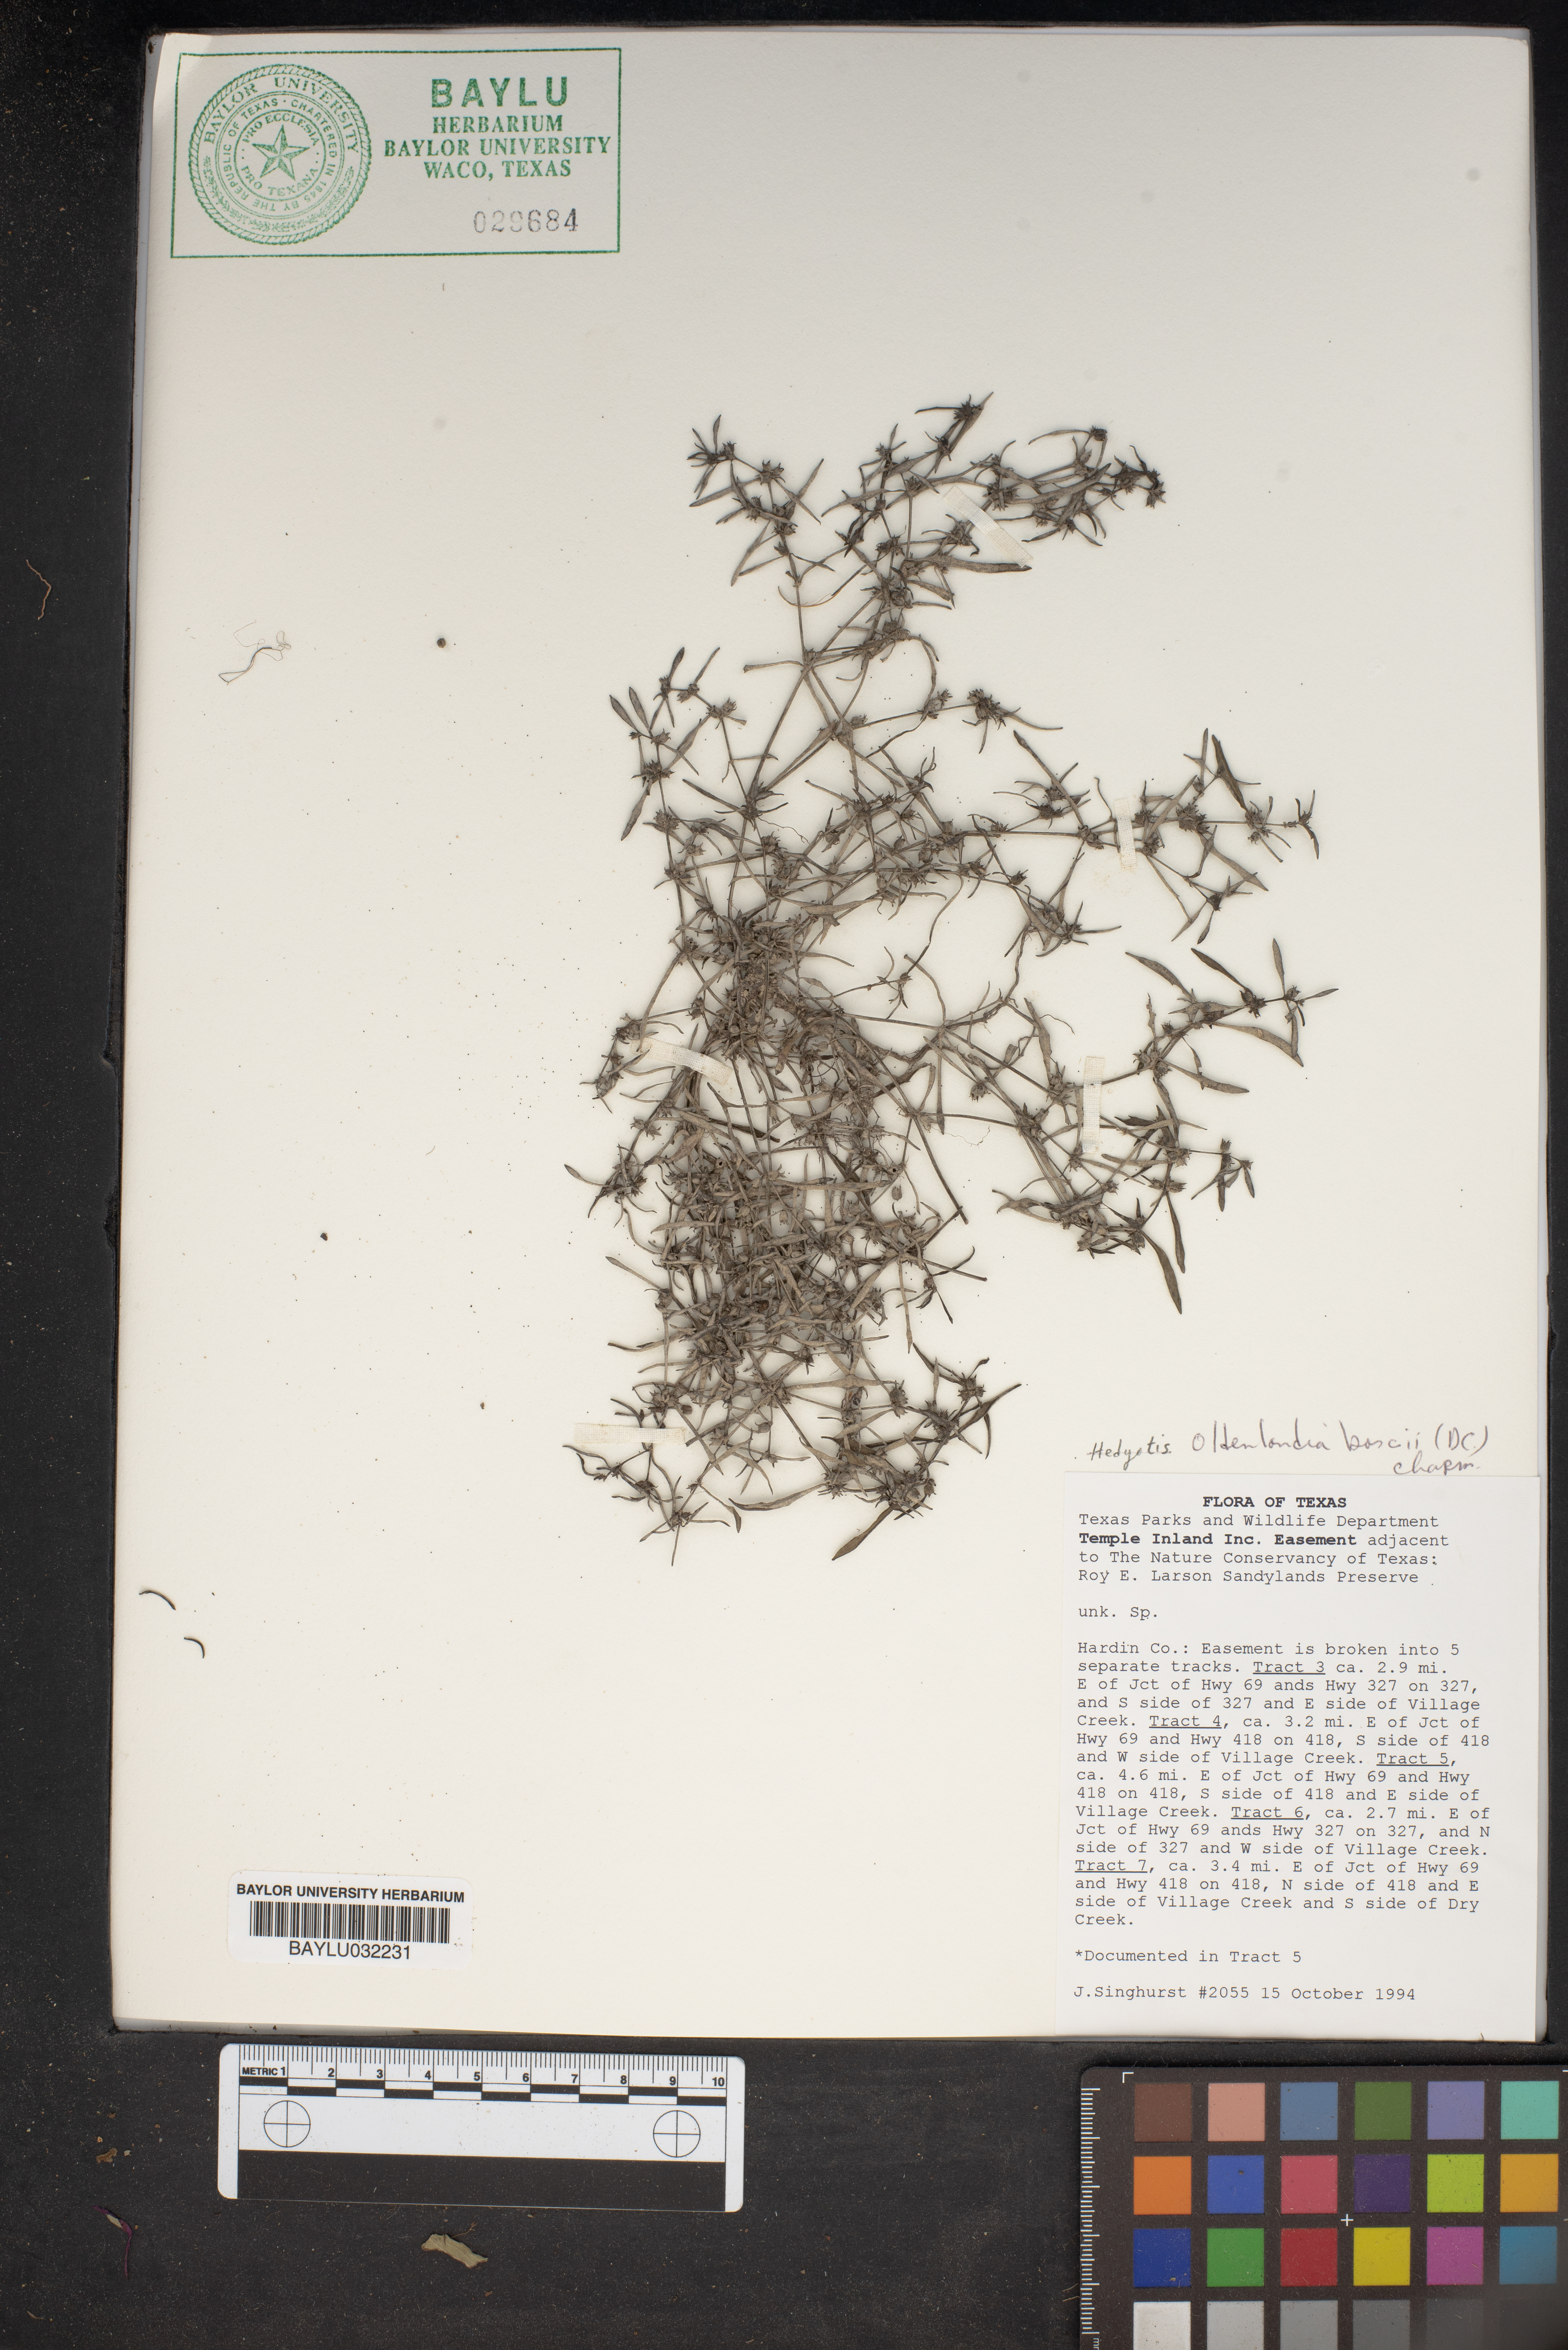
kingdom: Plantae
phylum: Tracheophyta
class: Magnoliopsida
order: Gentianales
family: Rubiaceae
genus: Oldenlandia
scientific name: Oldenlandia boscii
